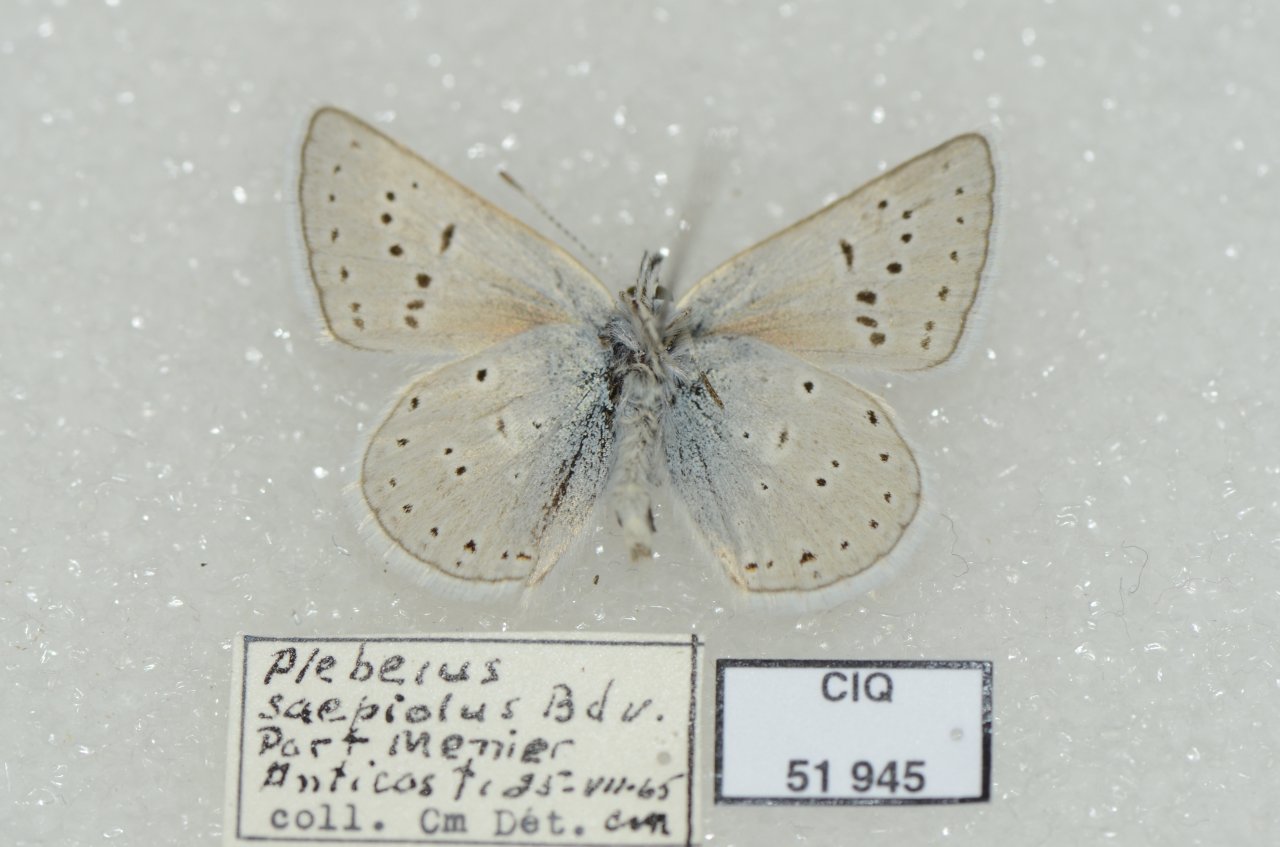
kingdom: Animalia
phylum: Arthropoda
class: Insecta
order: Lepidoptera
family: Lycaenidae
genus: Plebejus
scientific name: Plebejus saepiolus
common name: Greenish Blue
